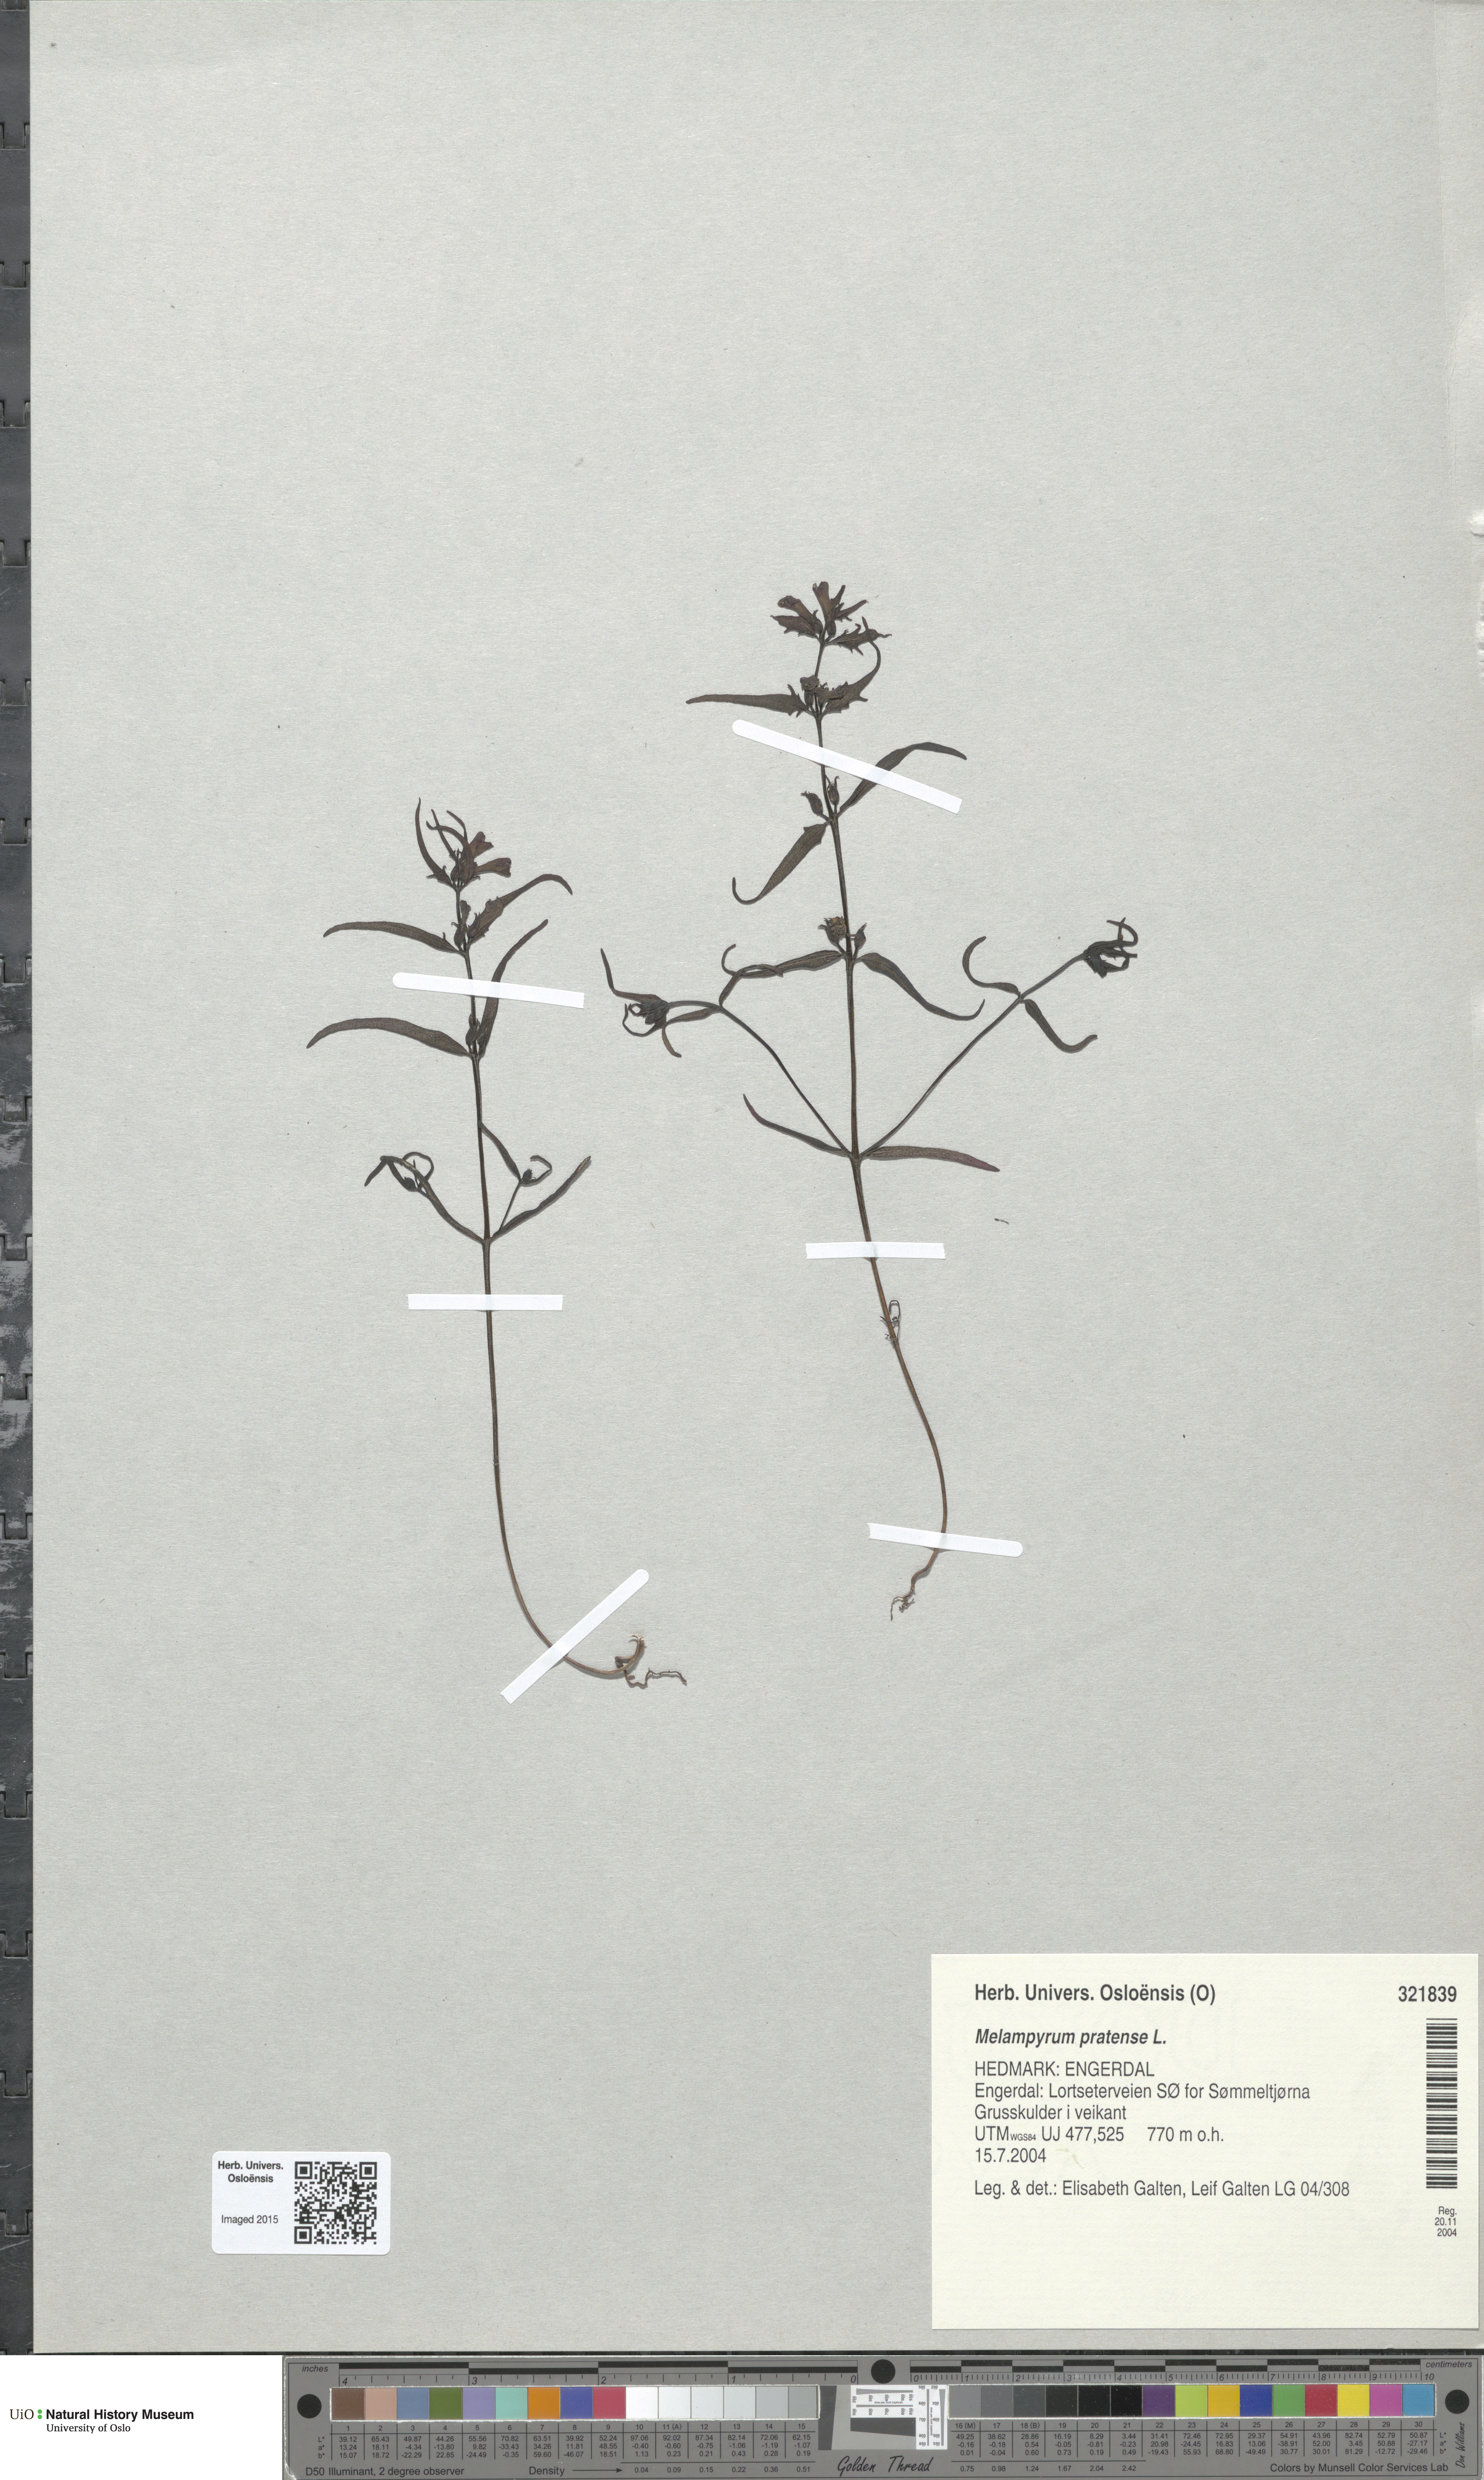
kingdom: Plantae
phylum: Tracheophyta
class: Magnoliopsida
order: Lamiales
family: Orobanchaceae
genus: Melampyrum
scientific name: Melampyrum pratense
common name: Common cow-wheat
